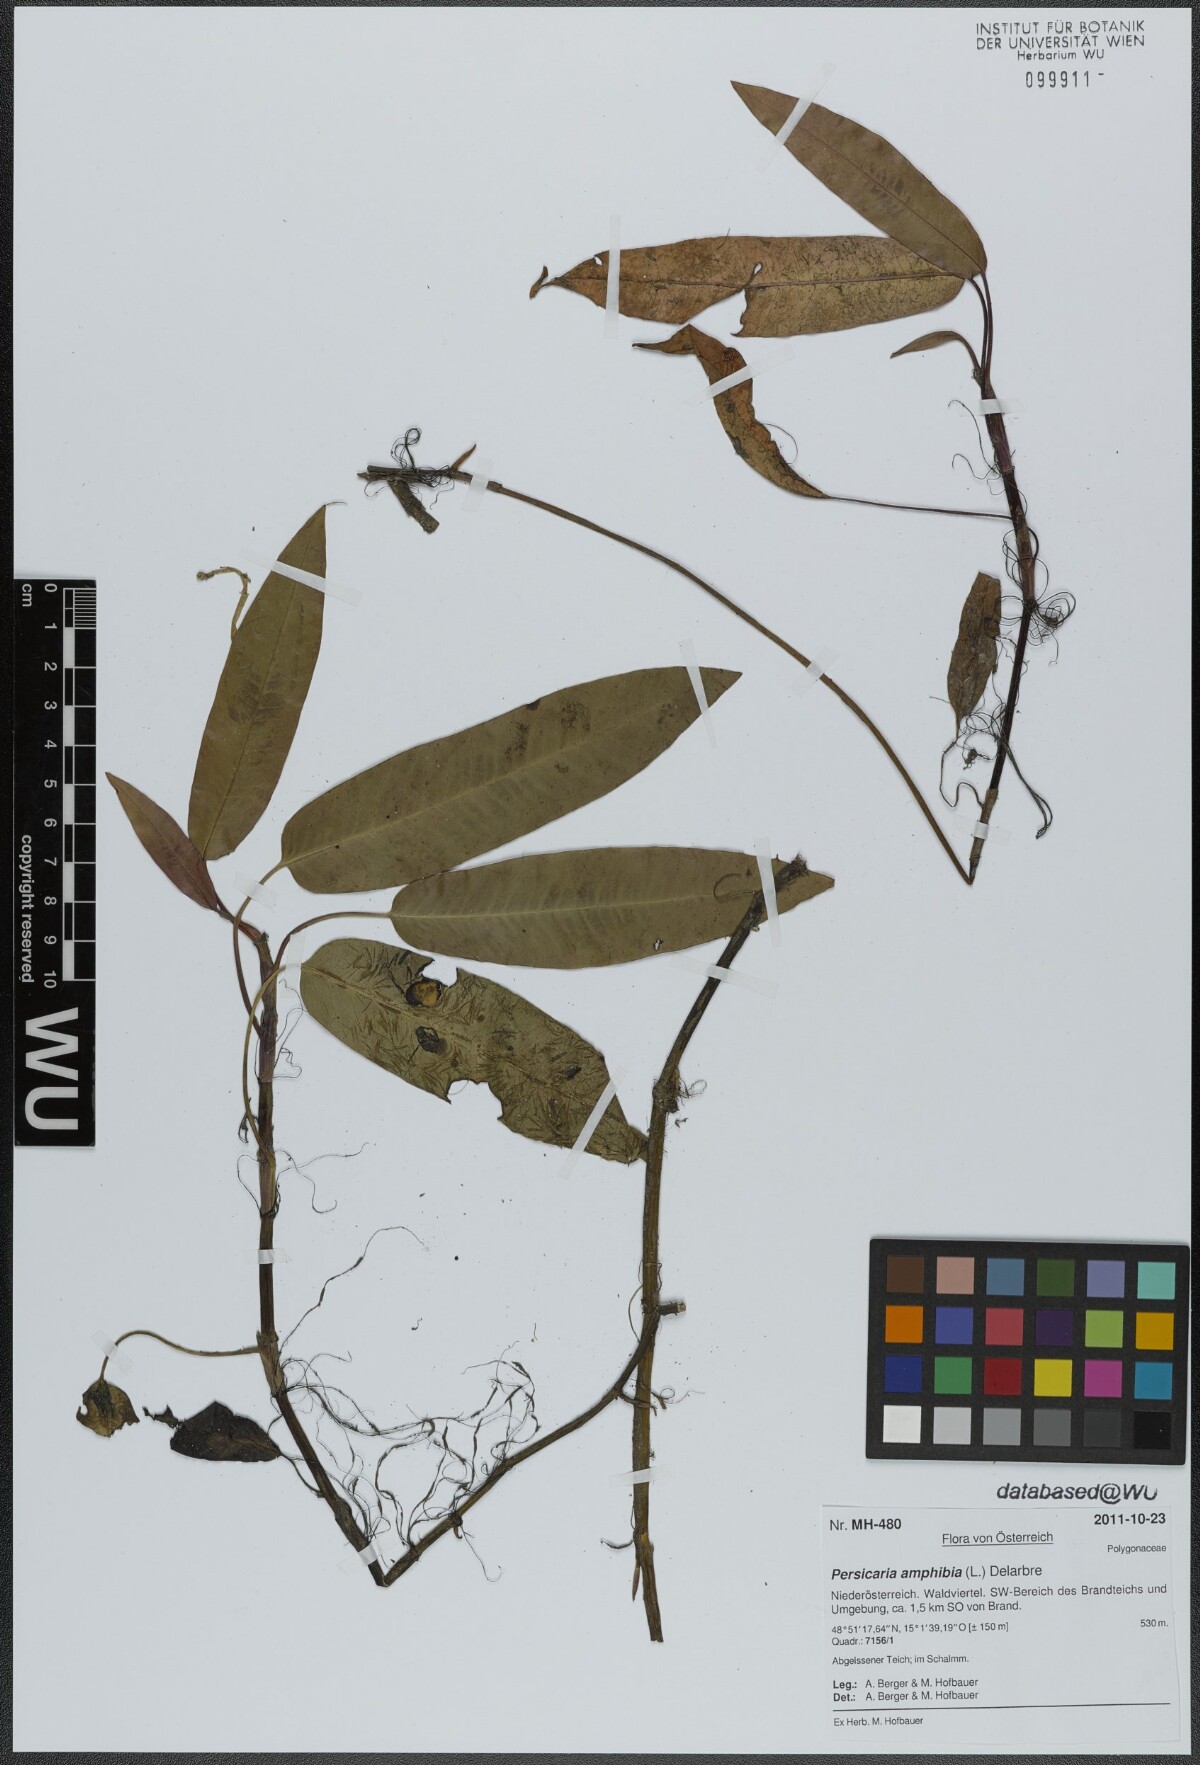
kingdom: Plantae
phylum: Tracheophyta
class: Magnoliopsida
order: Caryophyllales
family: Polygonaceae
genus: Persicaria
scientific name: Persicaria amphibia
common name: Amphibious bistort
